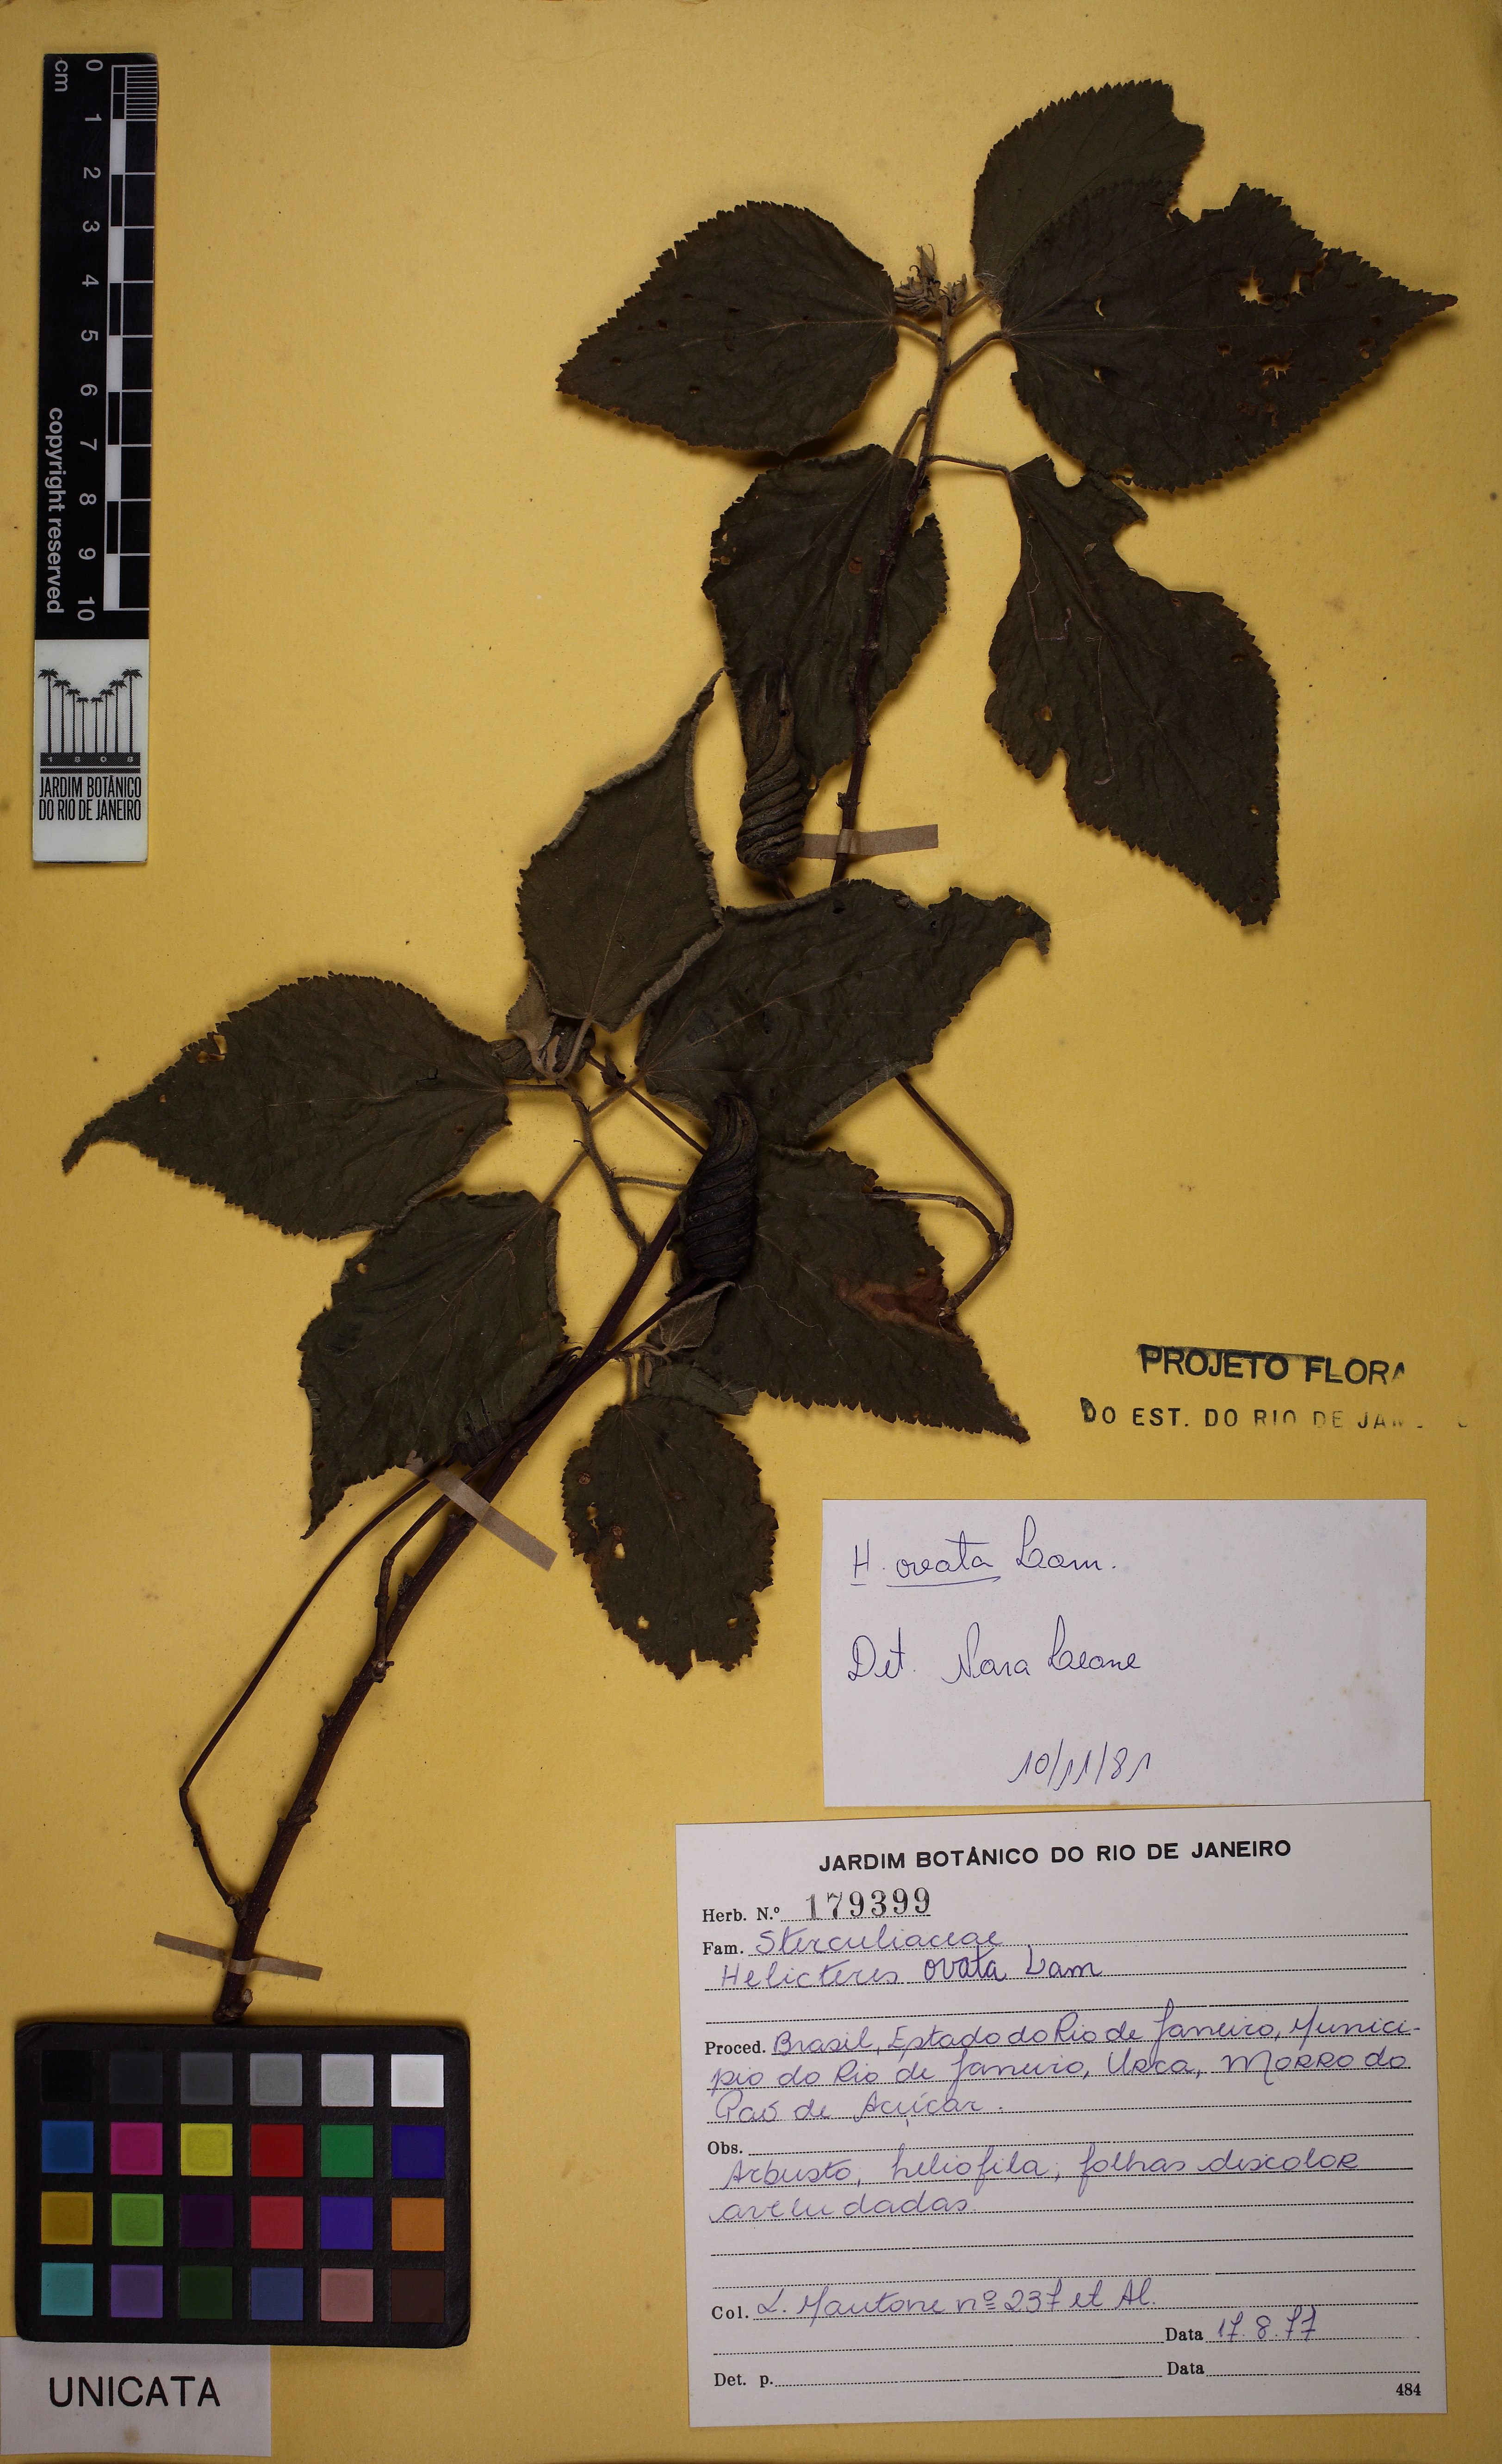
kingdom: Plantae
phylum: Tracheophyta
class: Magnoliopsida
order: Malvales
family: Malvaceae
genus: Helicteres
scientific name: Helicteres ovata
